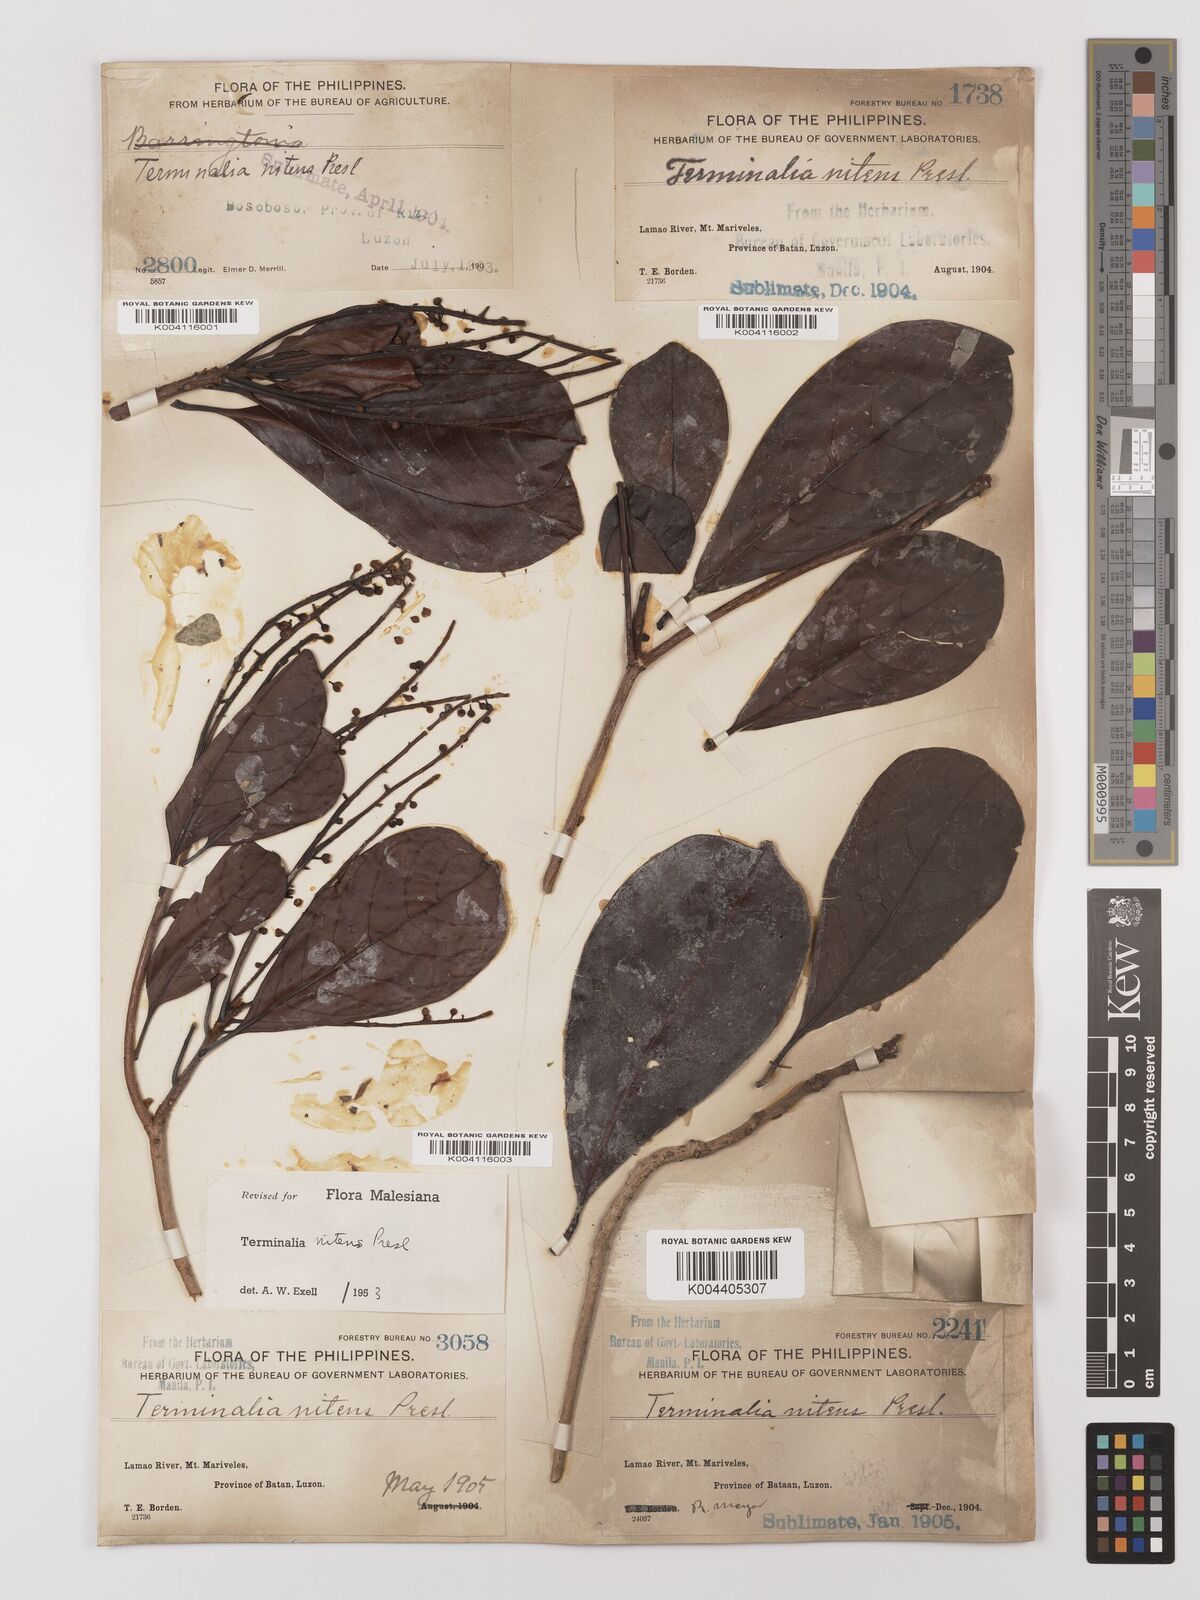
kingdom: Plantae
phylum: Tracheophyta
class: Magnoliopsida
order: Myrtales
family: Combretaceae
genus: Terminalia
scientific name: Terminalia nitens
